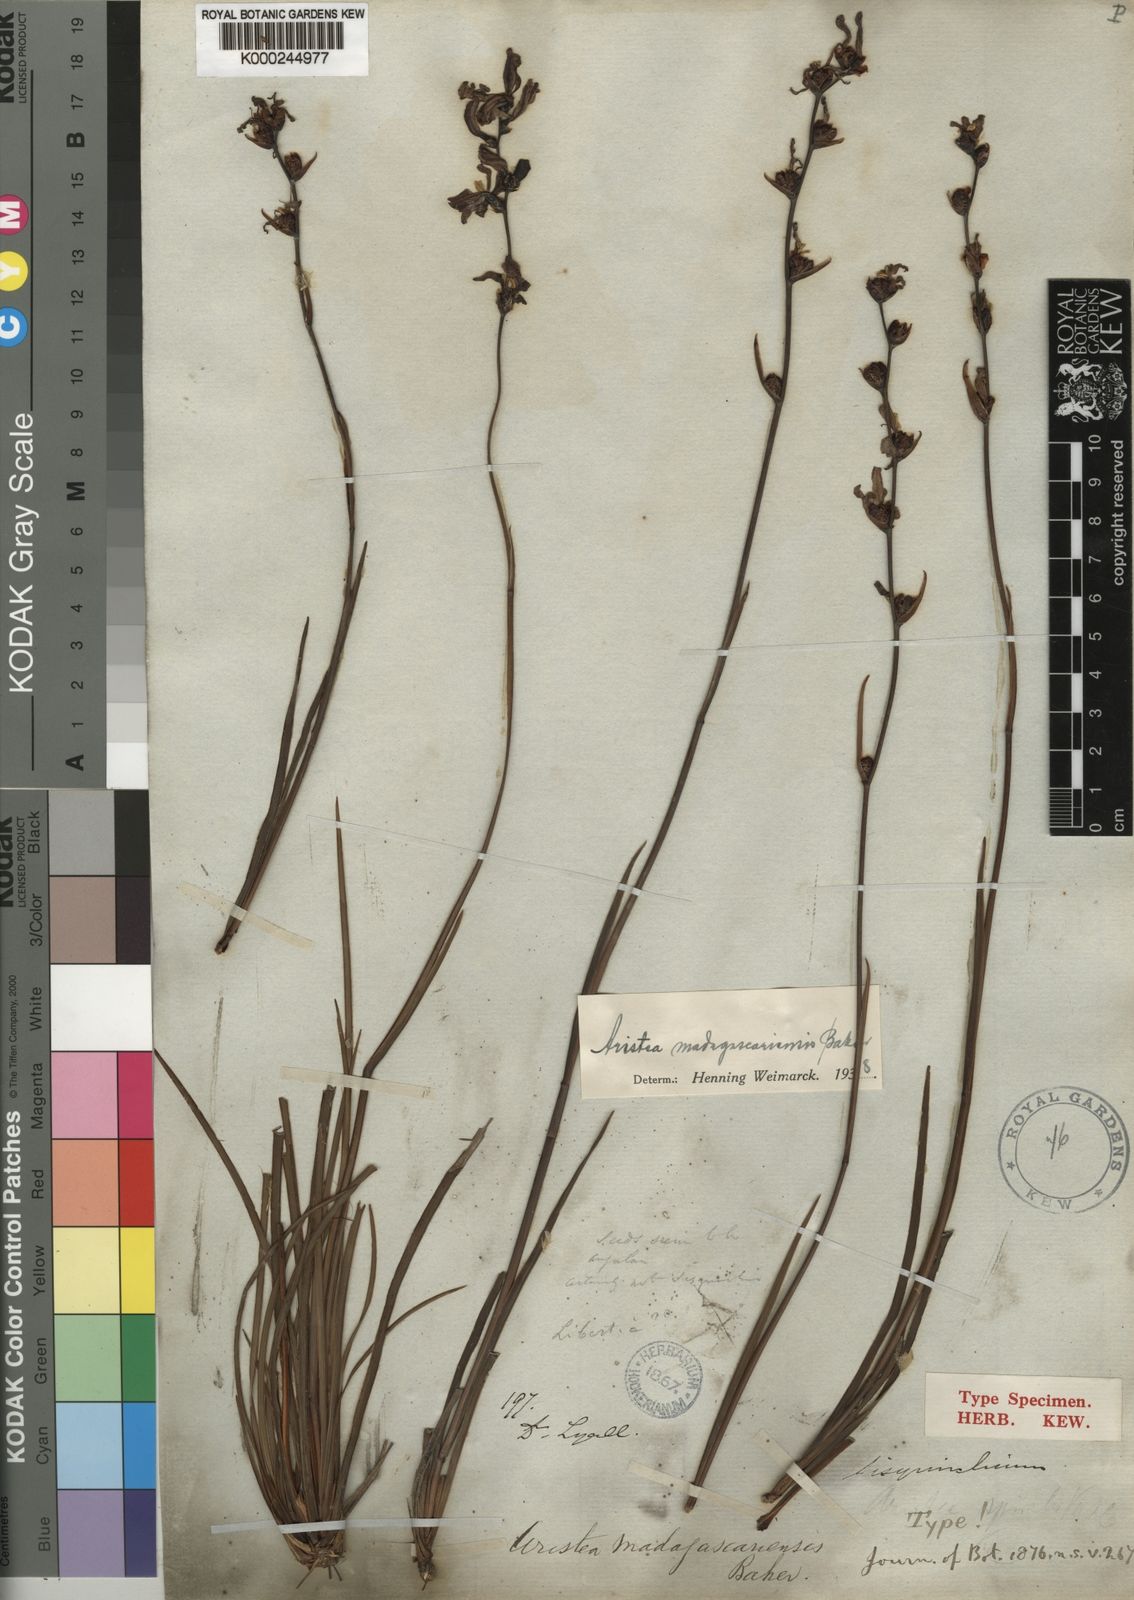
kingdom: Plantae
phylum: Tracheophyta
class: Liliopsida
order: Asparagales
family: Iridaceae
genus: Aristea
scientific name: Aristea madagascariensis
